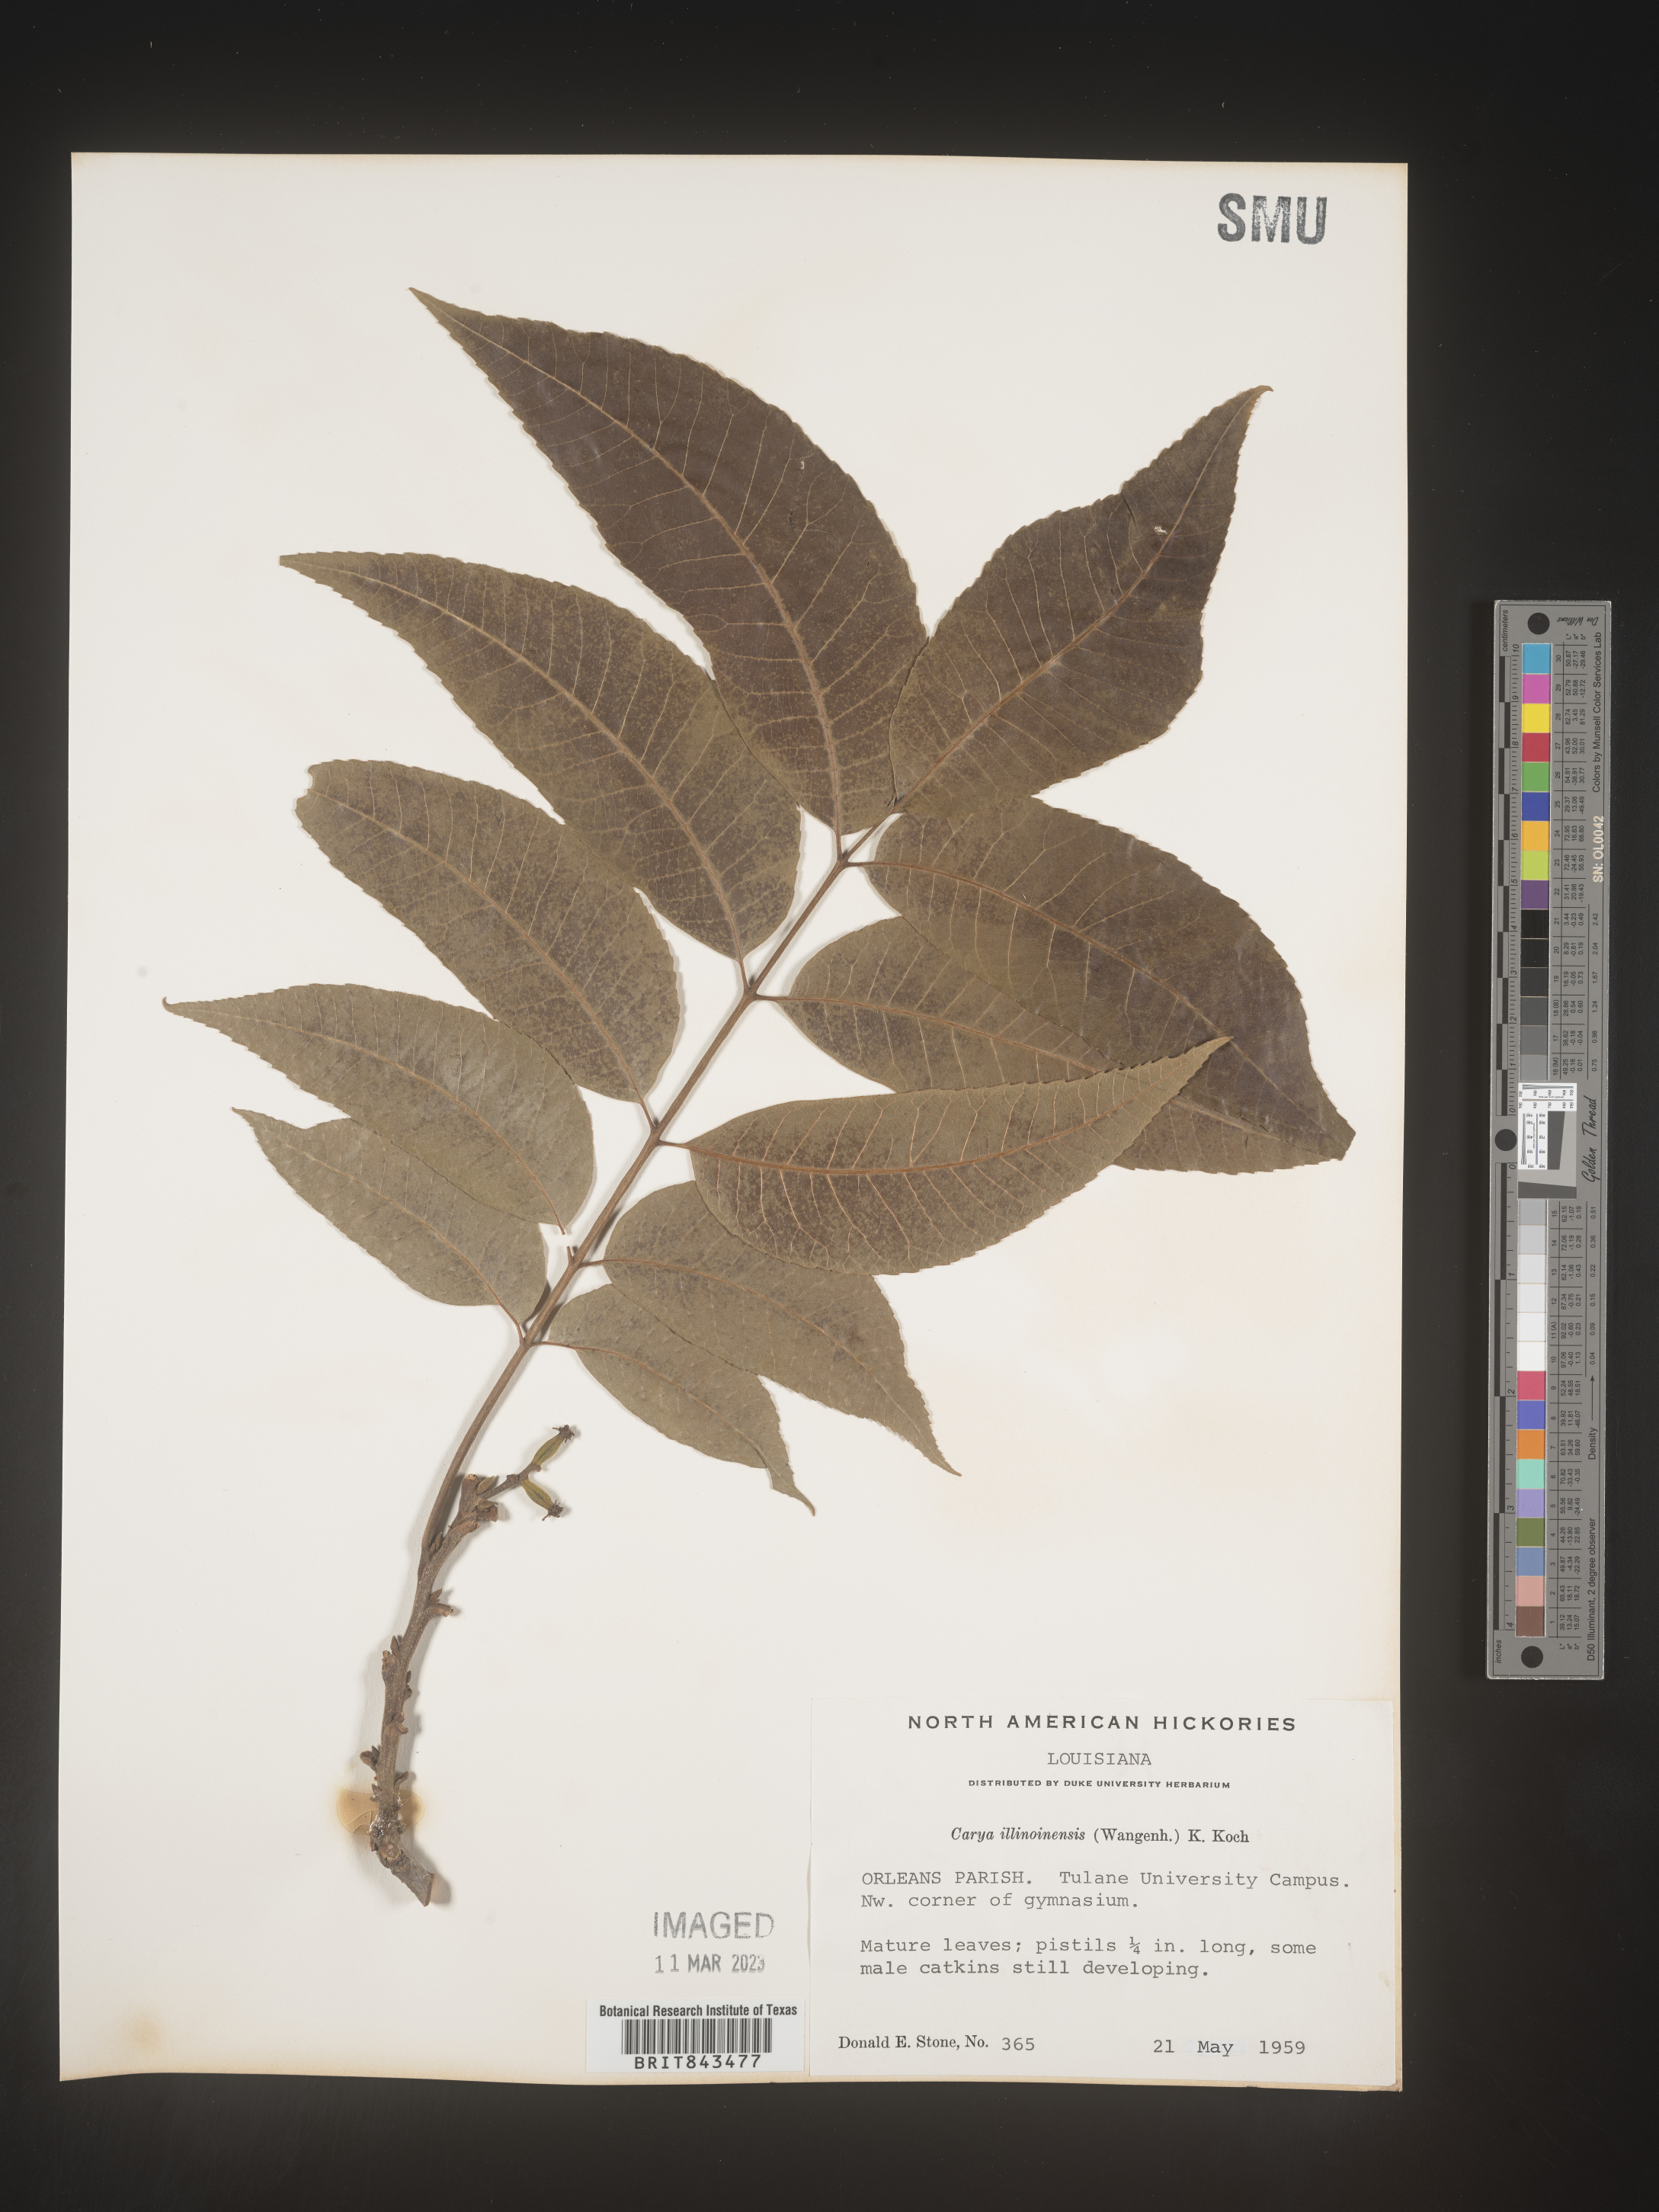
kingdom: Plantae
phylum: Tracheophyta
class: Magnoliopsida
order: Fagales
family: Juglandaceae
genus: Carya
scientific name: Carya illinoinensis
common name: Pecan
